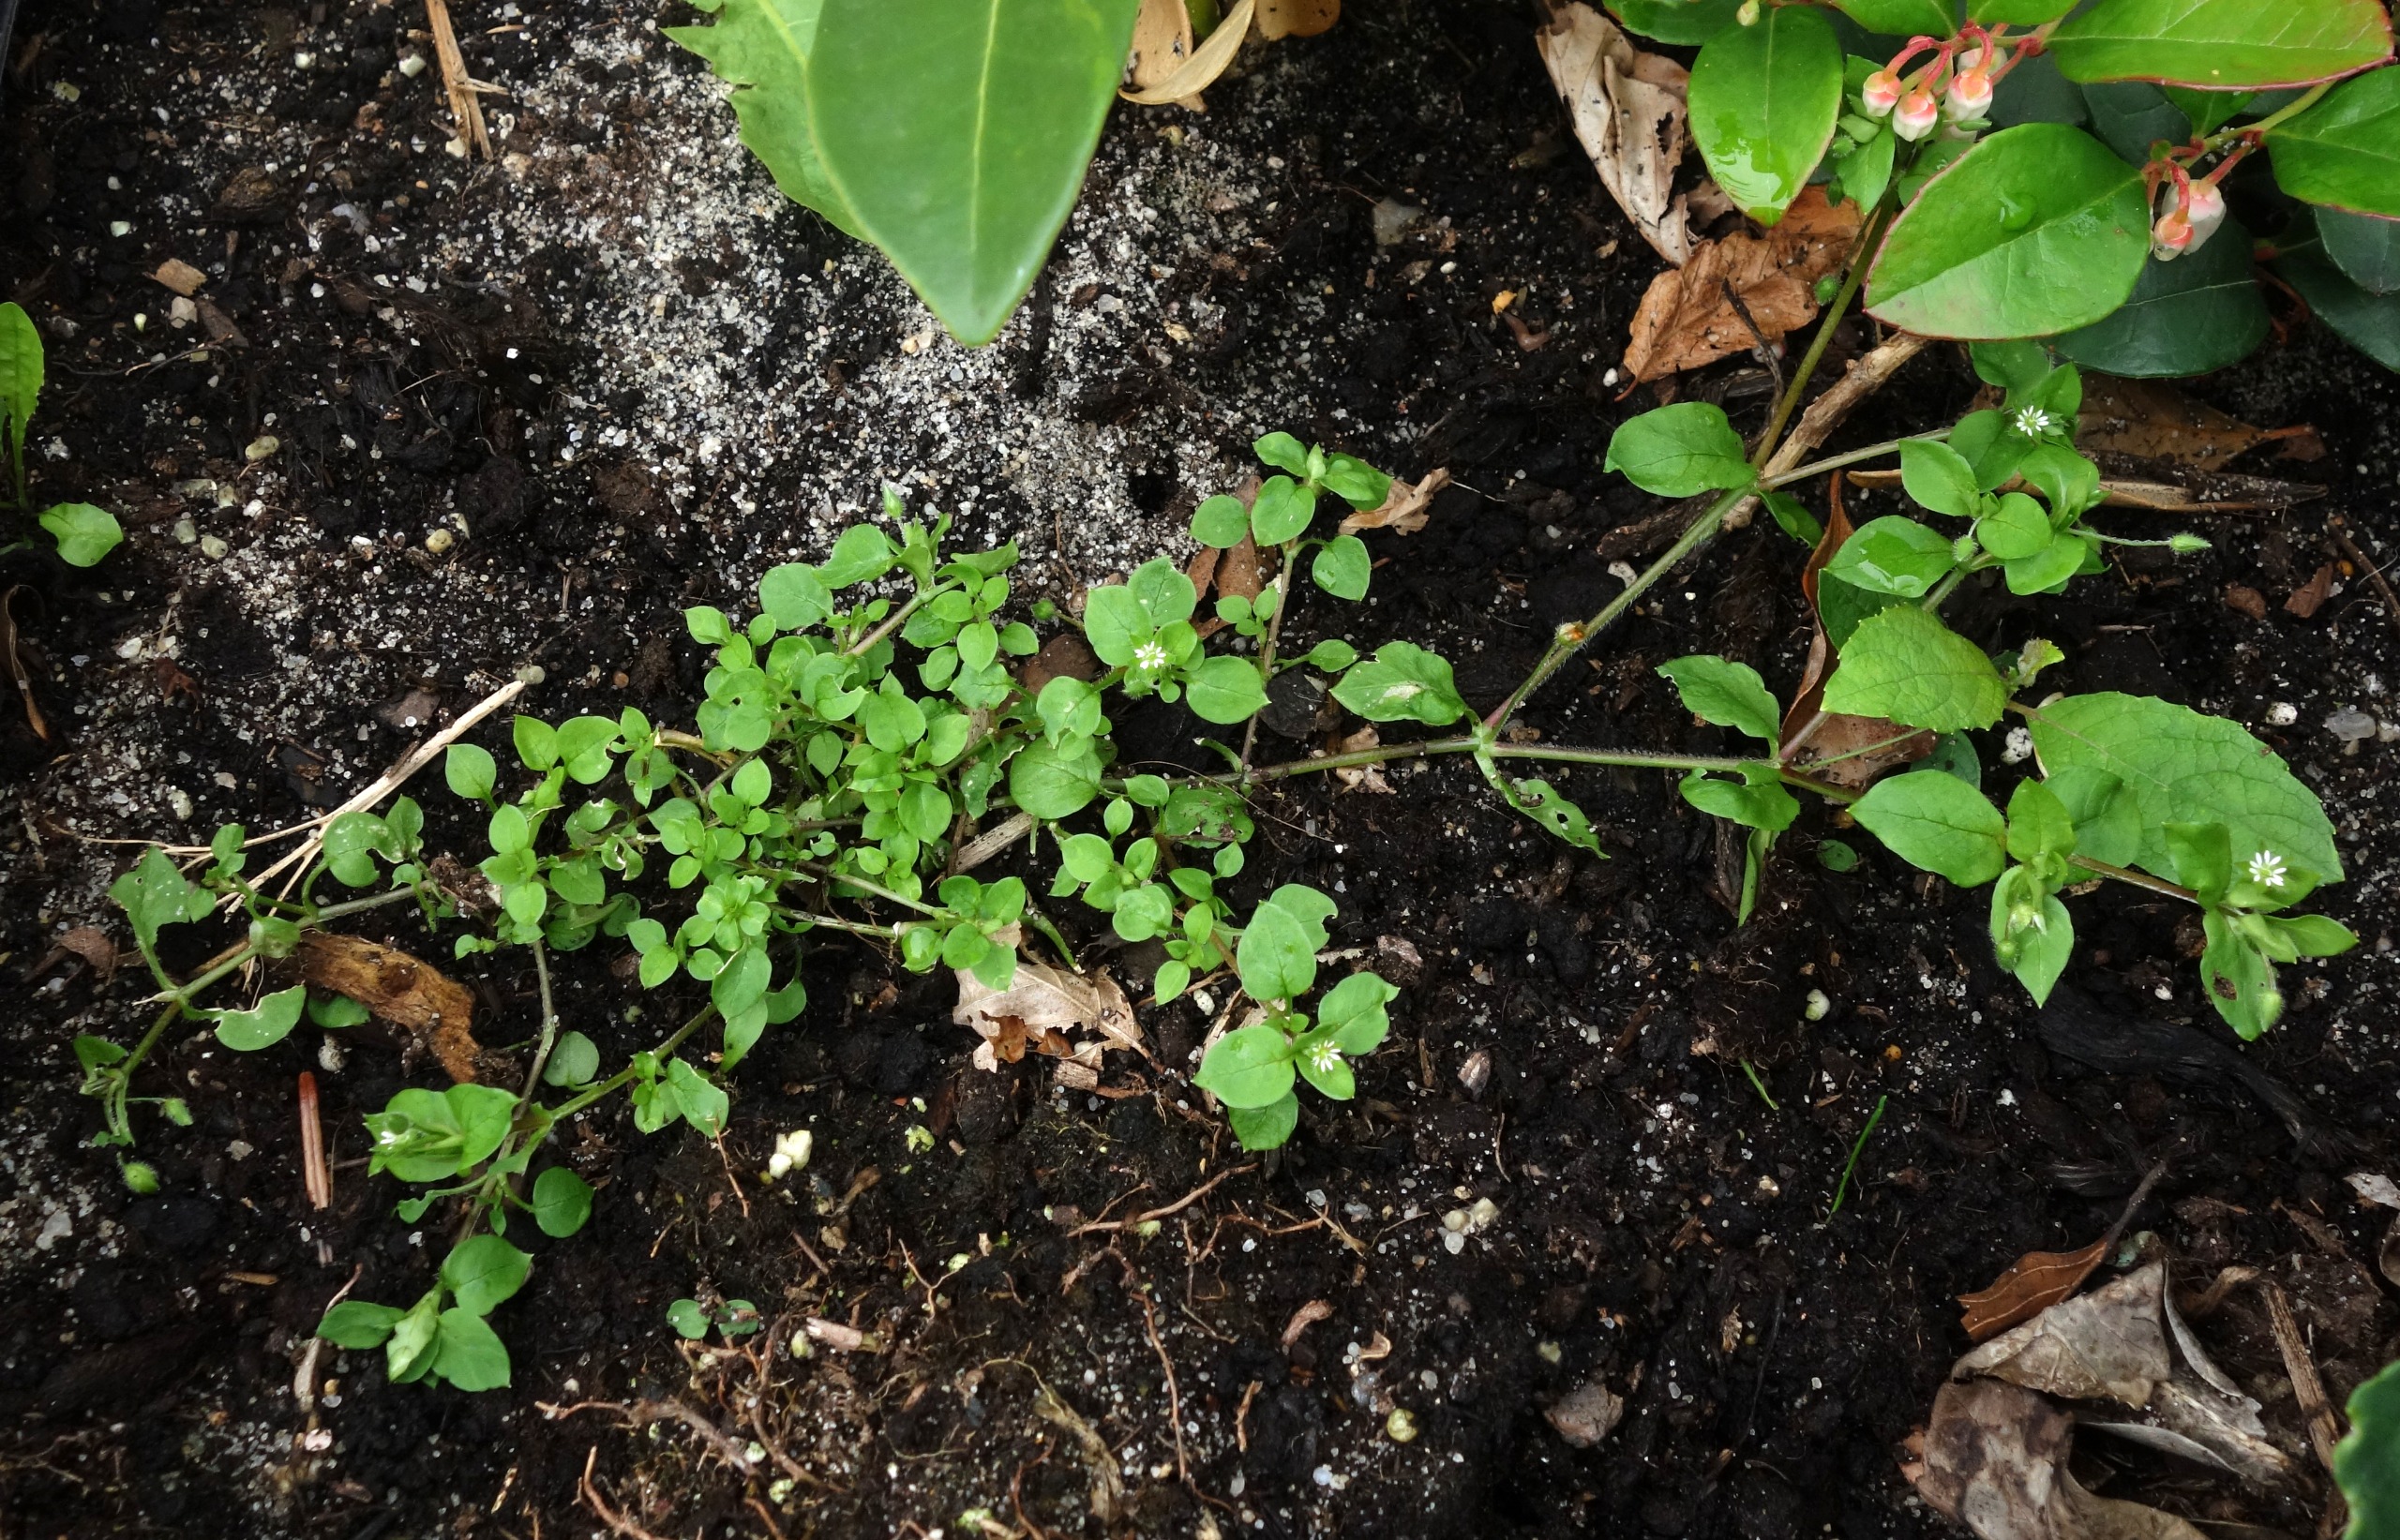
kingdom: Plantae
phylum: Tracheophyta
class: Magnoliopsida
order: Caryophyllales
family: Caryophyllaceae
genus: Stellaria
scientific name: Stellaria media
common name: Almindelig fuglegræs
